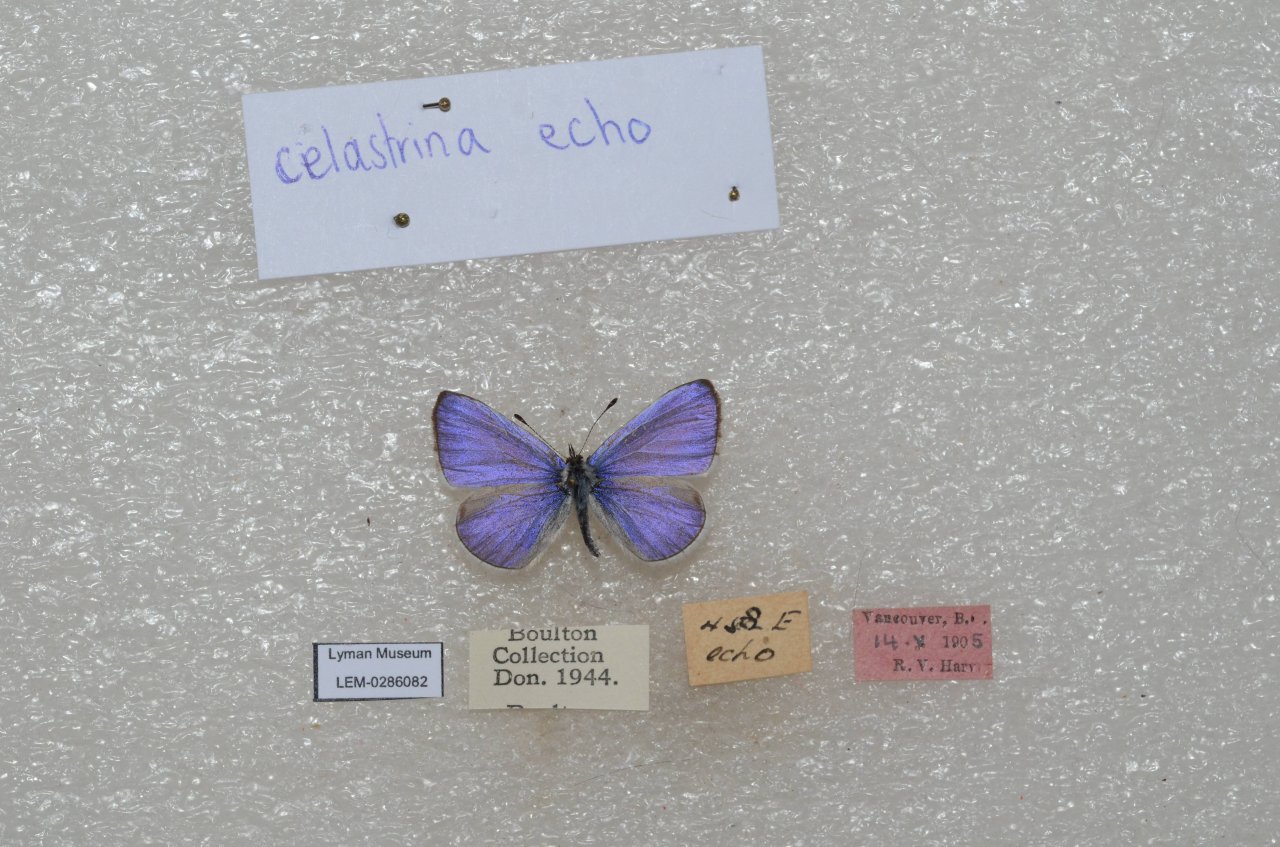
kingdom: Animalia
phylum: Arthropoda
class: Insecta
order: Lepidoptera
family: Lycaenidae
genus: Celastrina
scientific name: Celastrina ladon
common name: Echo Azure
